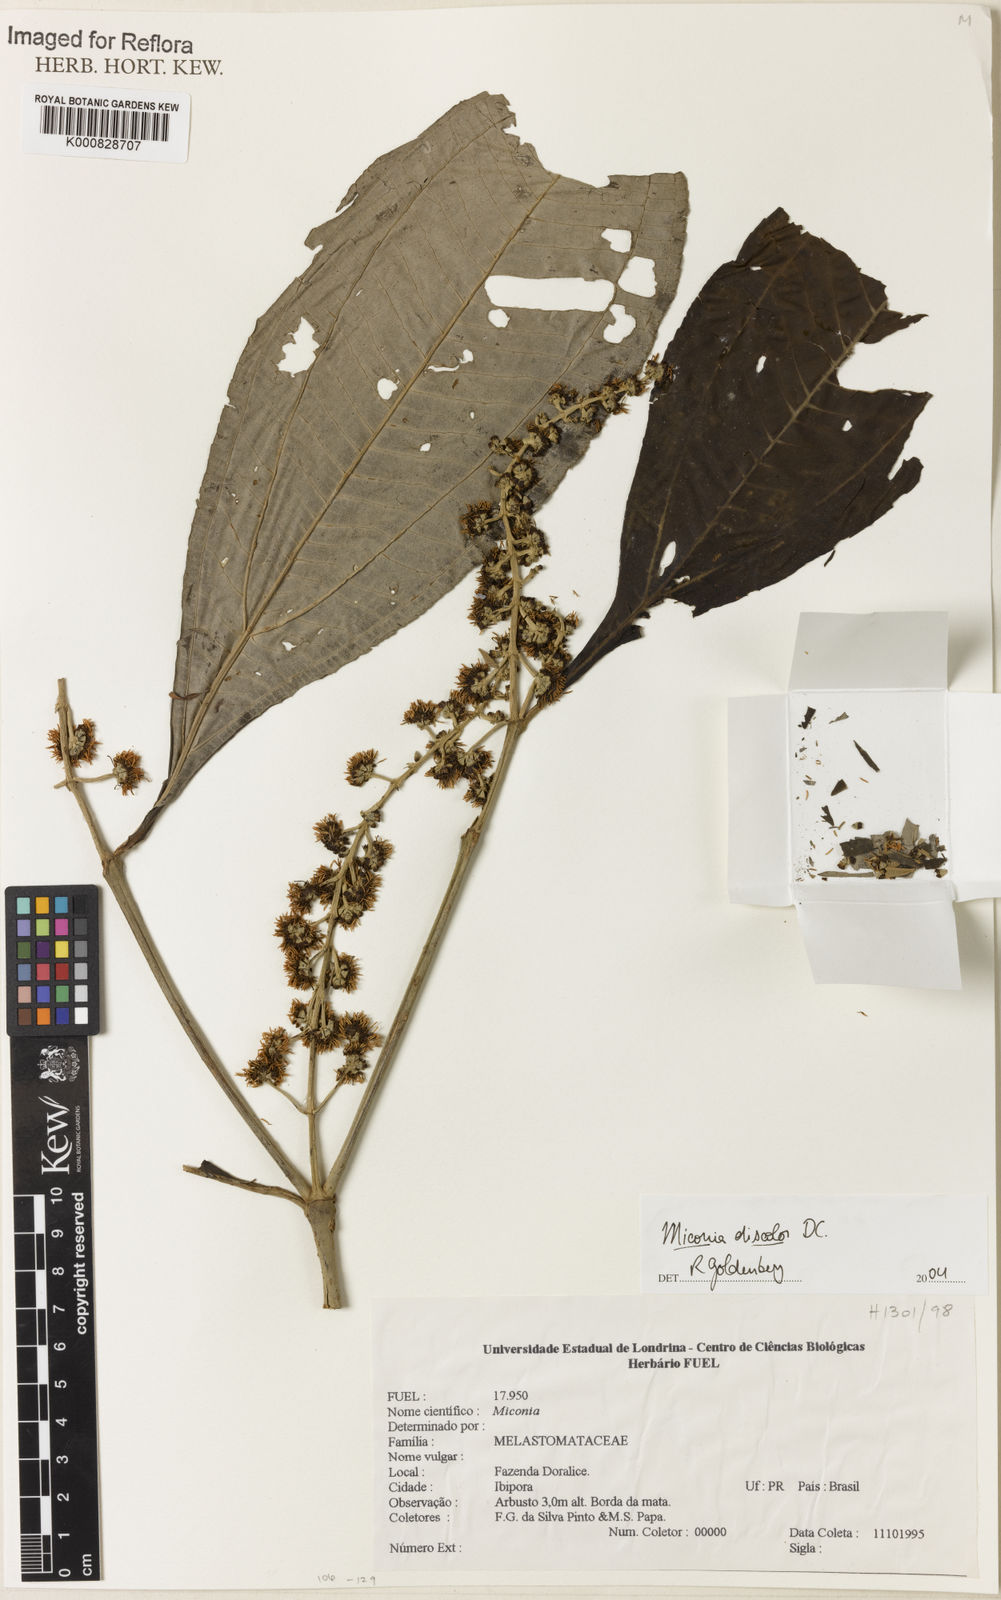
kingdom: Plantae
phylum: Tracheophyta
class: Magnoliopsida
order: Myrtales
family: Melastomataceae
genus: Miconia
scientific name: Miconia discolor
